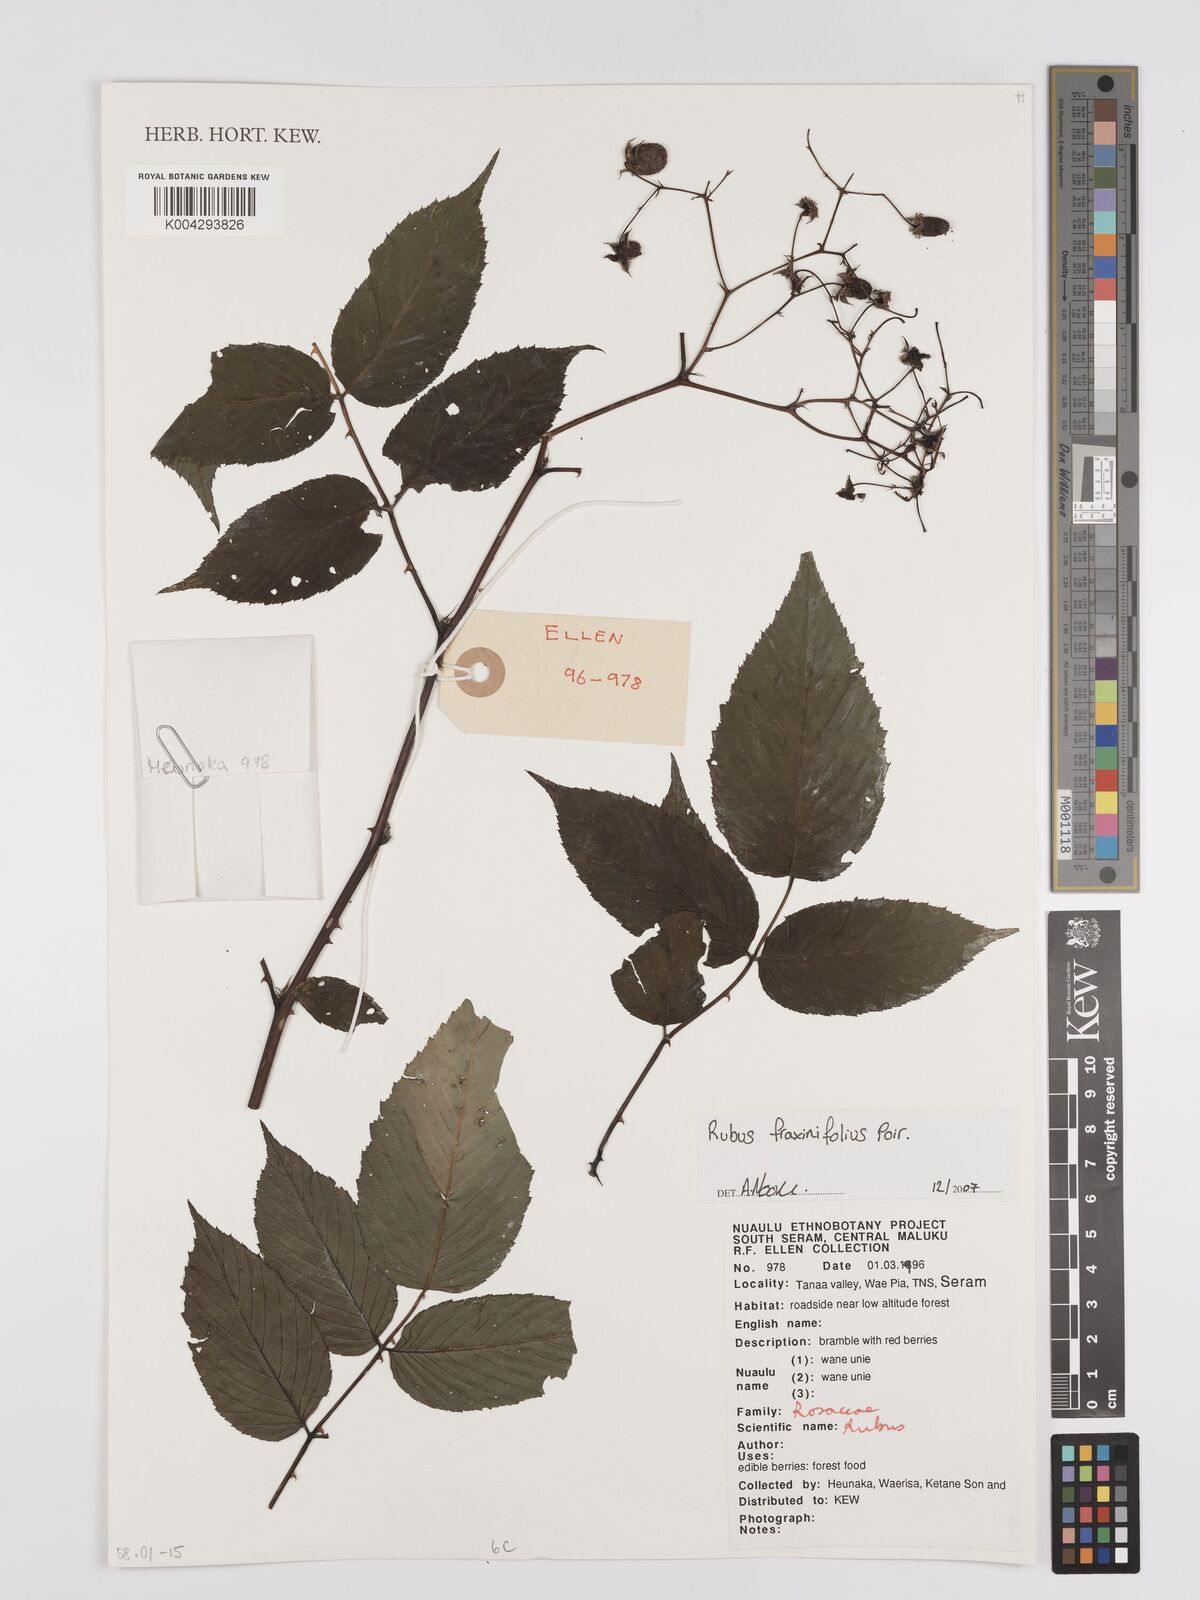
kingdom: Plantae
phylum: Tracheophyta
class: Magnoliopsida
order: Rosales
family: Rosaceae
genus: Rubus
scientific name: Rubus fraxinifolius
